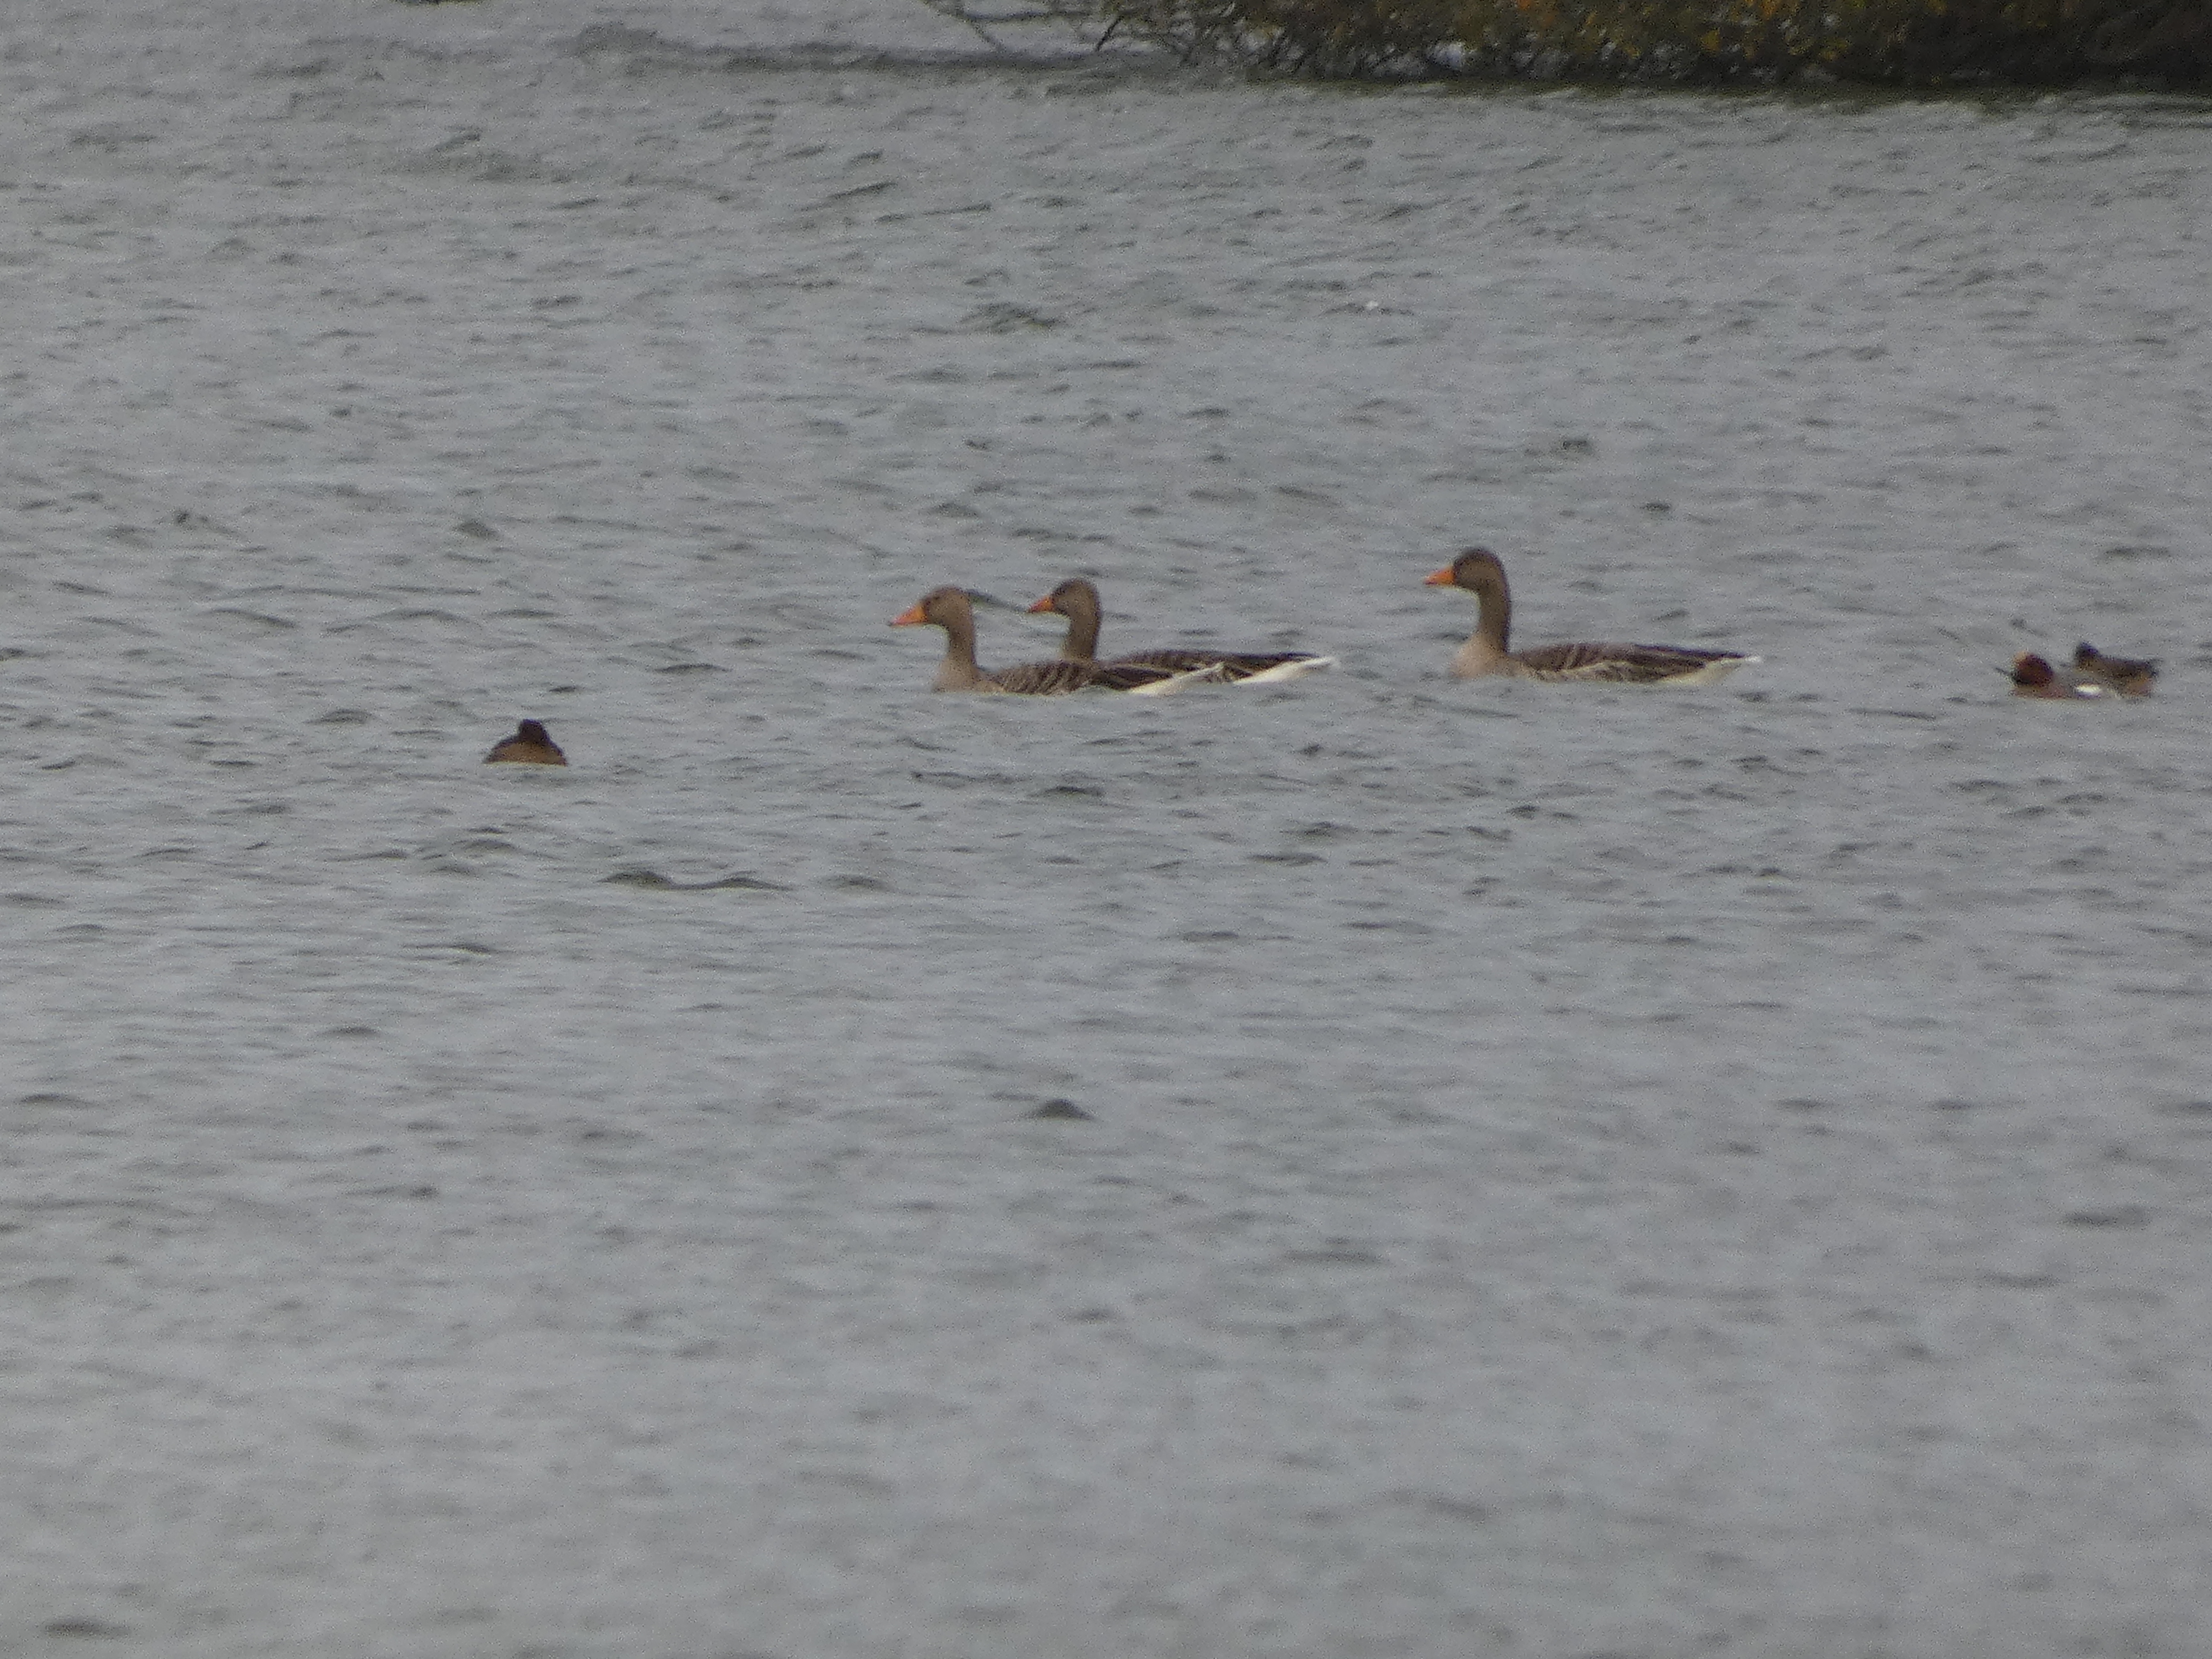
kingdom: Animalia
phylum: Chordata
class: Aves
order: Anseriformes
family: Anatidae
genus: Anser
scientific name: Anser anser
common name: Grågås
